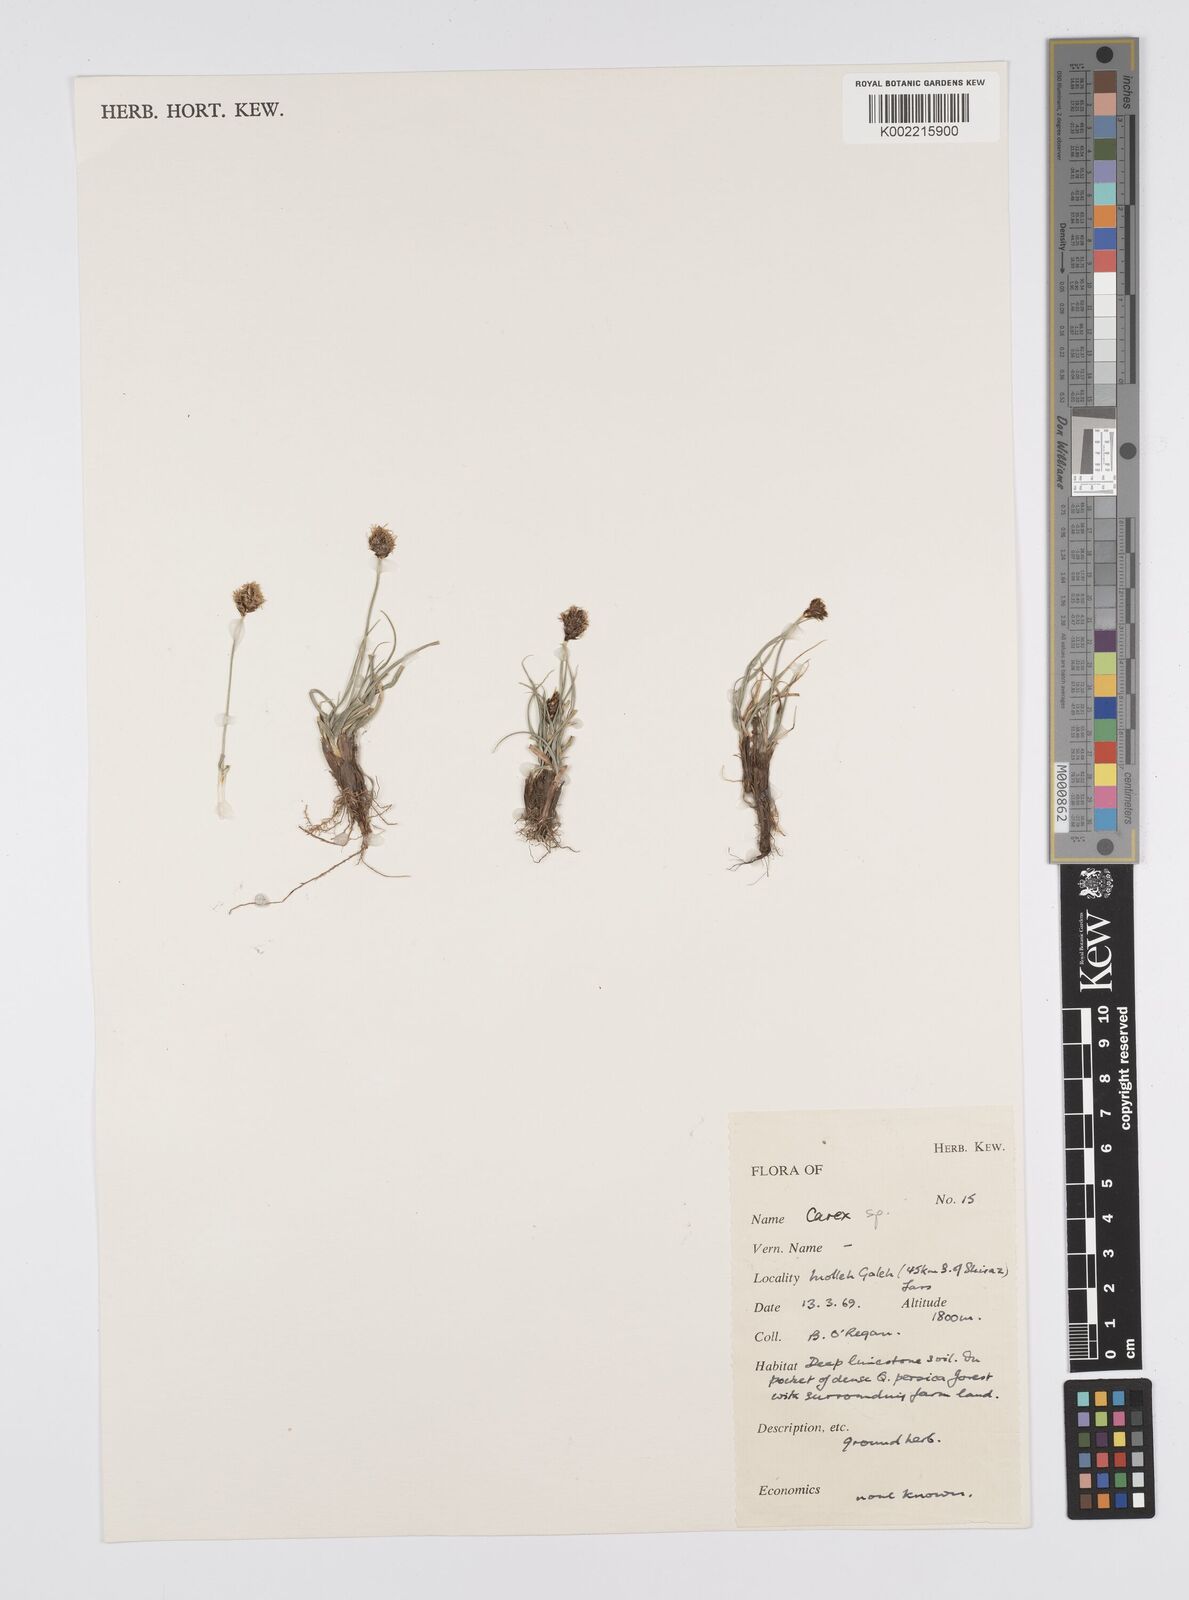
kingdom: Plantae
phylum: Tracheophyta
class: Liliopsida
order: Poales
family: Cyperaceae
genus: Carex
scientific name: Carex stenophylla
